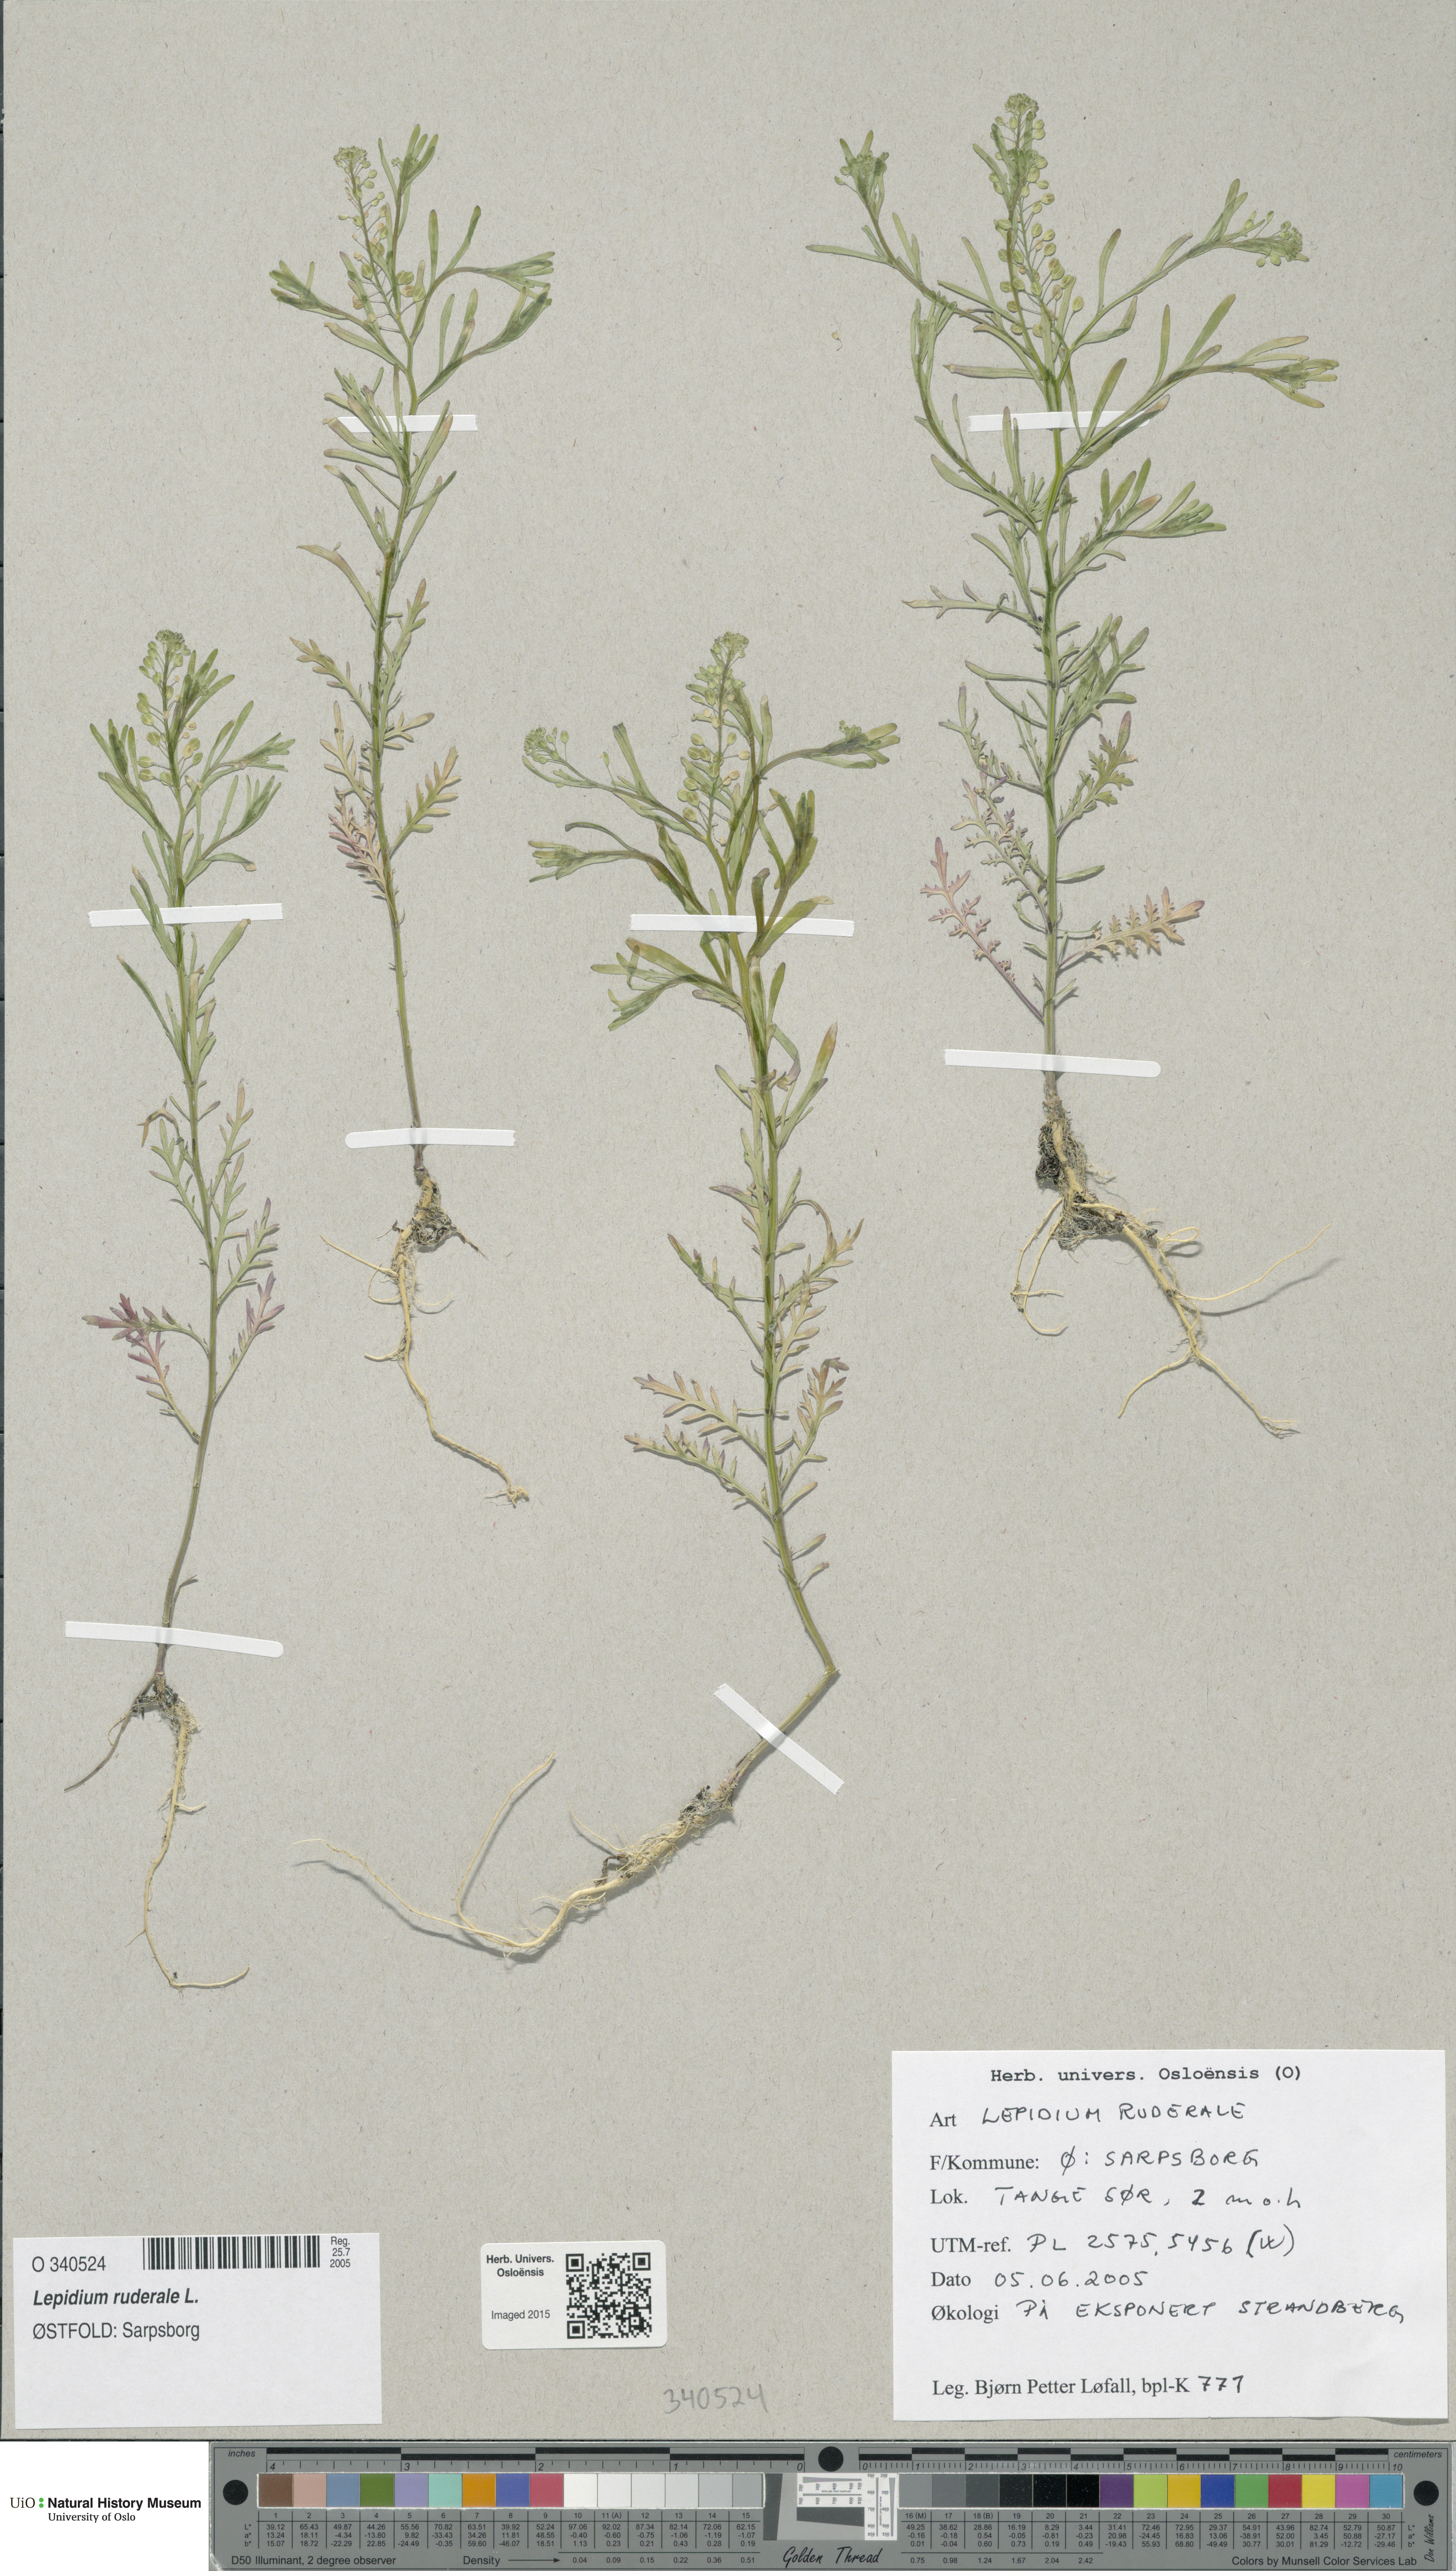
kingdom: Plantae
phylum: Tracheophyta
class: Magnoliopsida
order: Brassicales
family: Brassicaceae
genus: Lepidium
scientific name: Lepidium ruderale
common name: Narrow-leaved pepperwort
